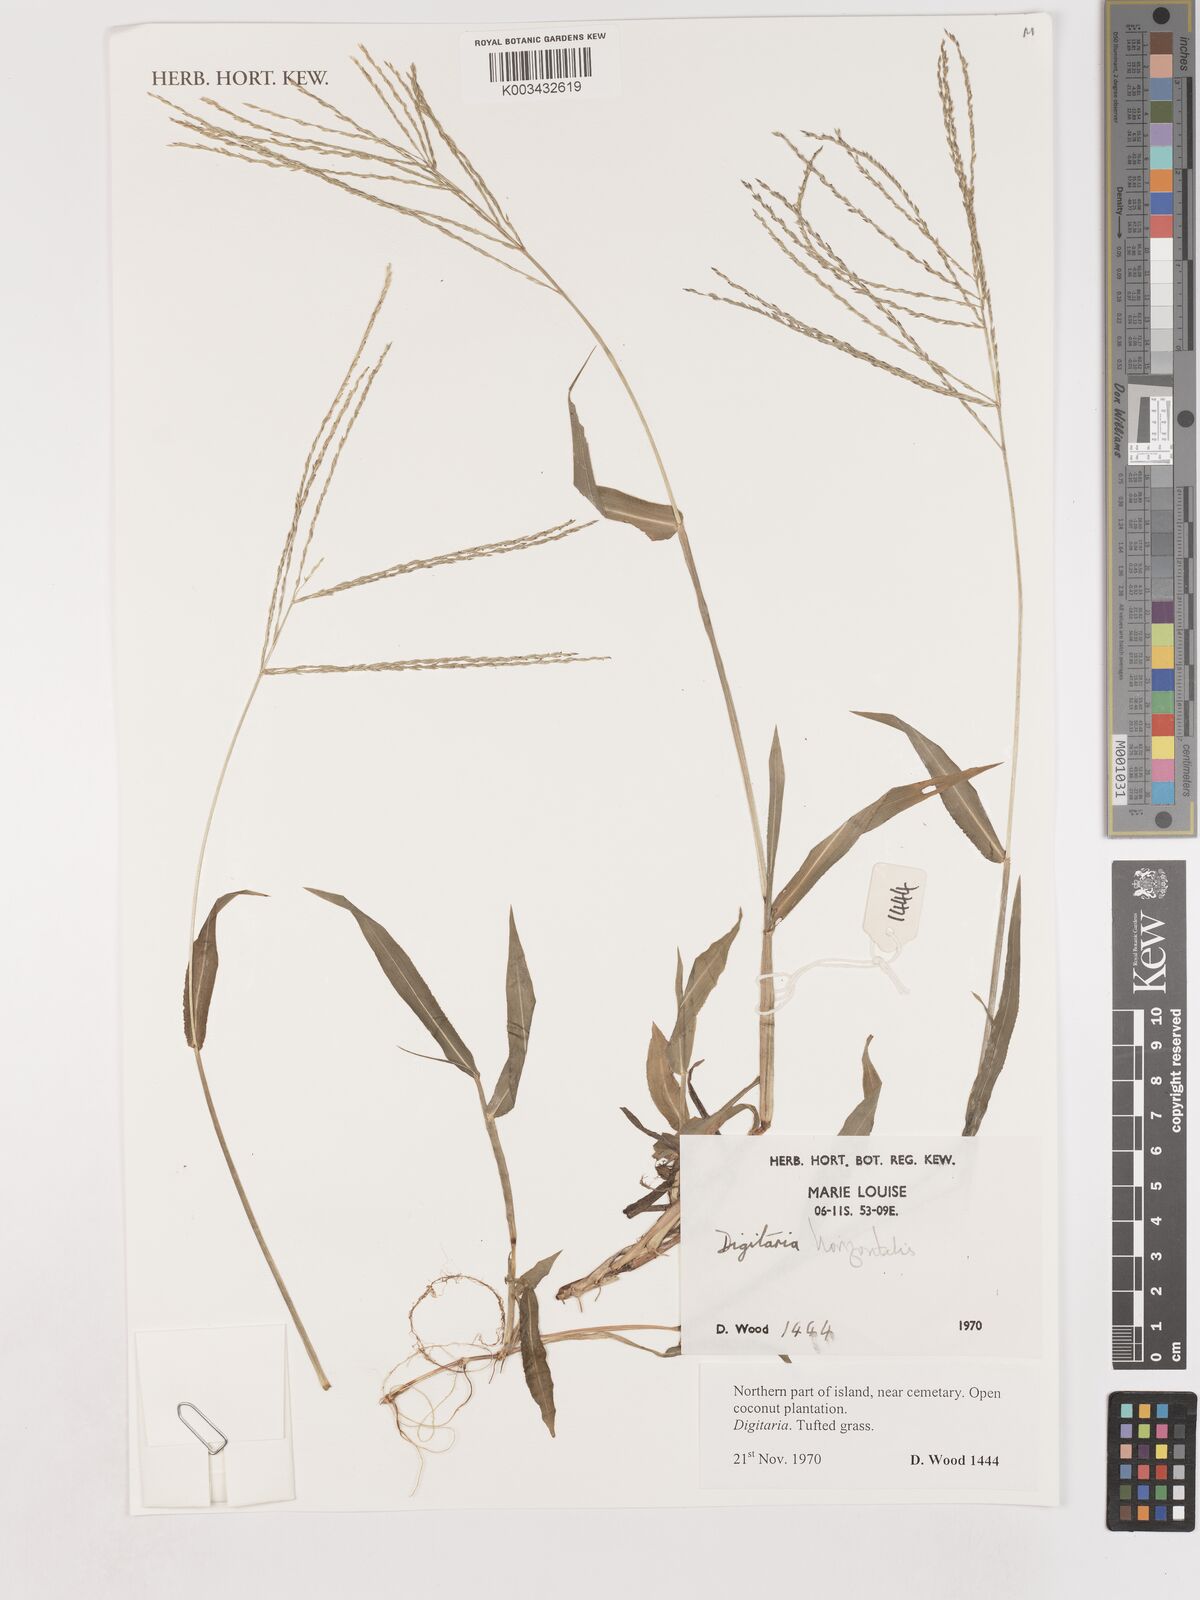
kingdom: Plantae
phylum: Tracheophyta
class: Liliopsida
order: Poales
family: Poaceae
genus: Digitaria
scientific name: Digitaria horizontalis
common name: Jamaican crabgrass
